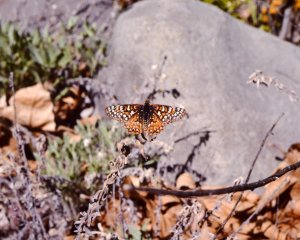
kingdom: Animalia
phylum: Arthropoda
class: Insecta
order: Lepidoptera
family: Nymphalidae
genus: Occidryas
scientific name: Occidryas anicia
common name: Anicia Checkerspot
